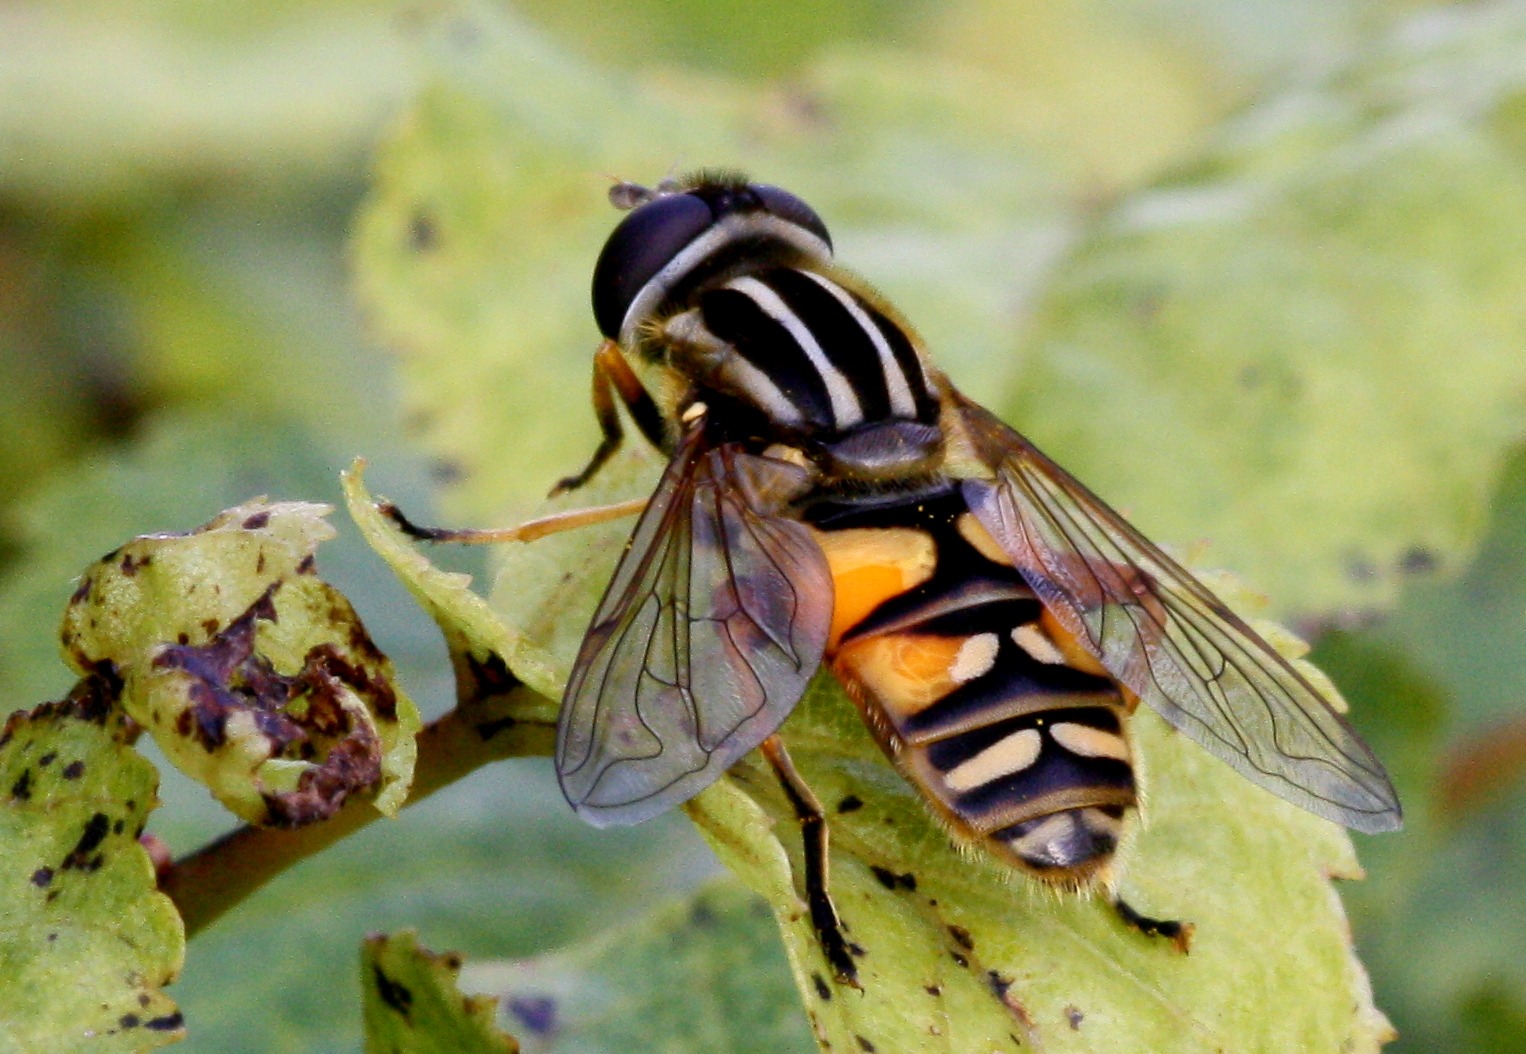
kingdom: Animalia
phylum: Arthropoda
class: Insecta
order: Diptera
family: Syrphidae
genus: Helophilus
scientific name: Helophilus pendulus
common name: Almindelig sumpsvirreflue
